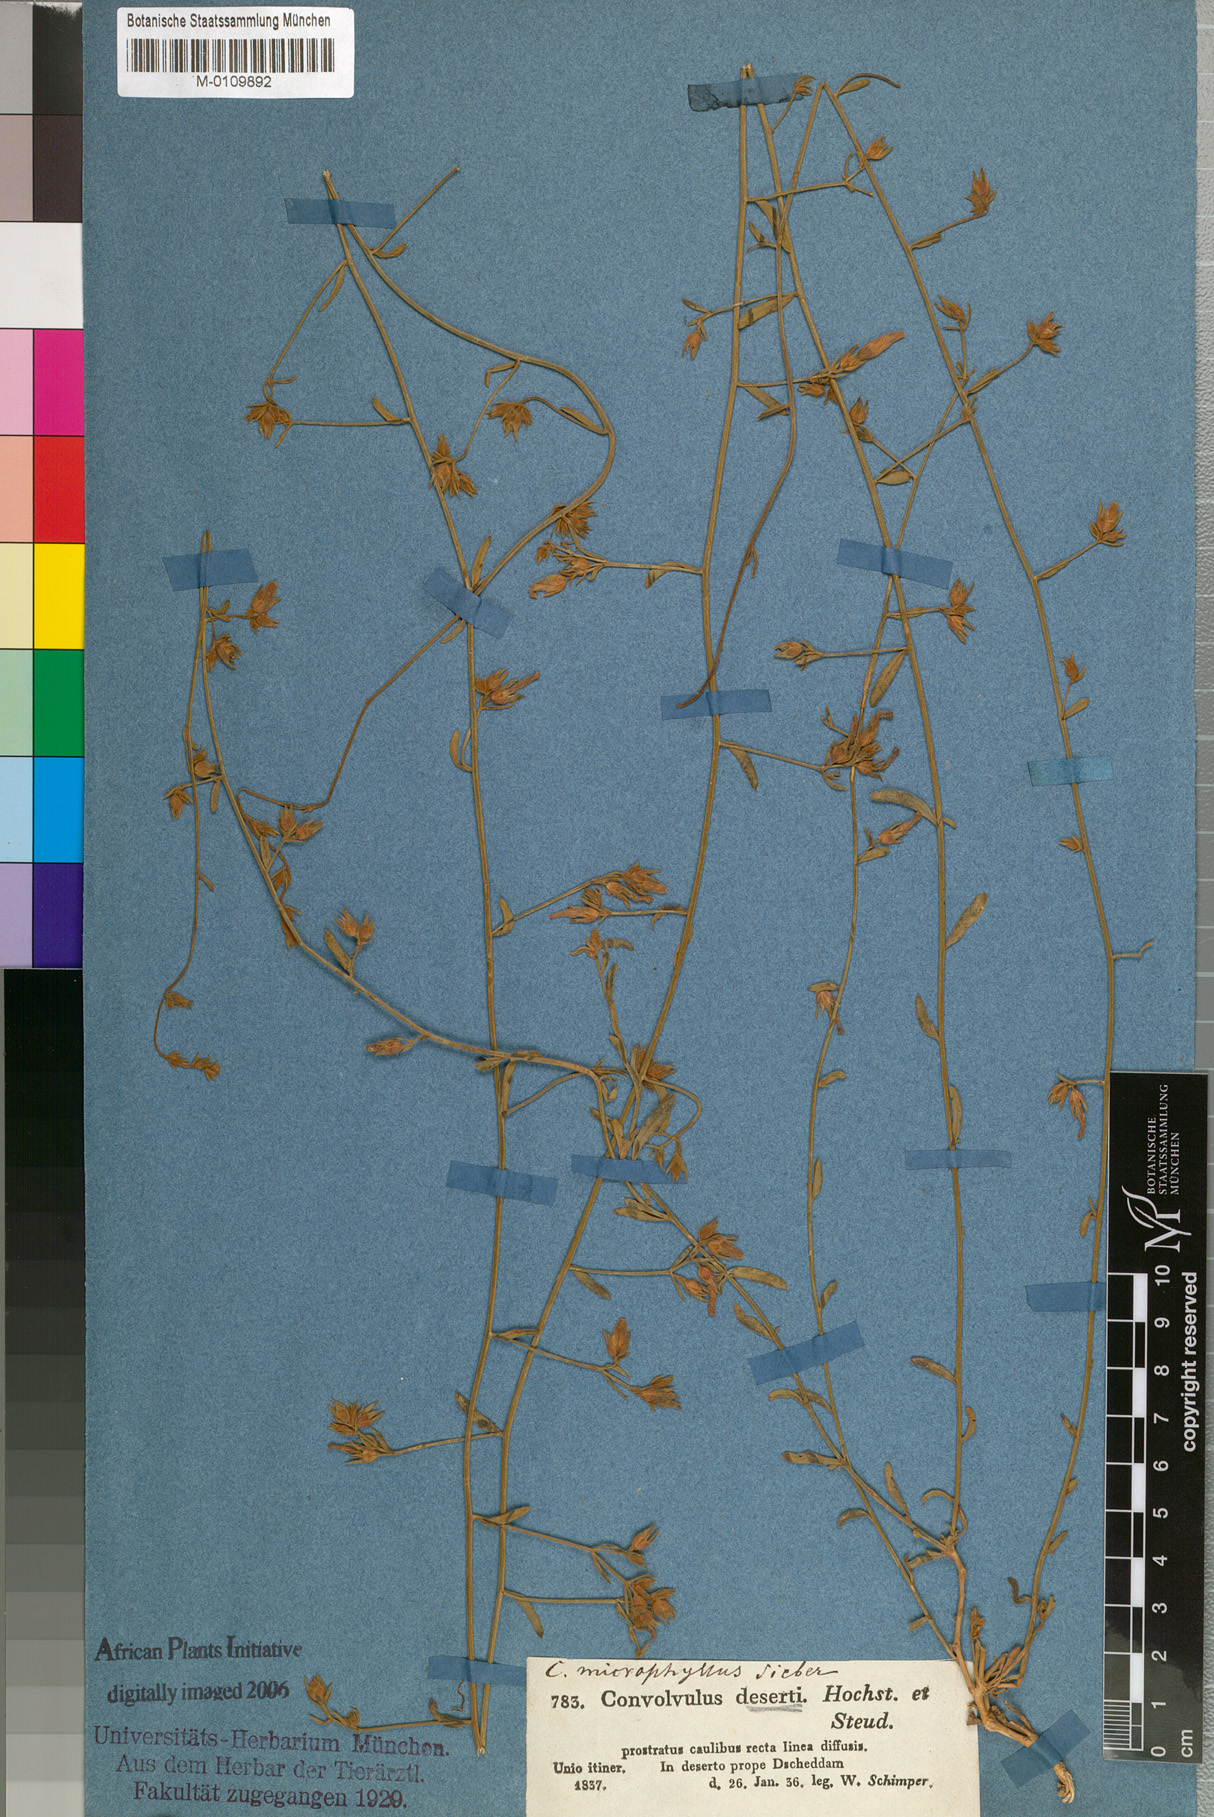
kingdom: Plantae
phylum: Tracheophyta
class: Magnoliopsida
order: Solanales
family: Convolvulaceae
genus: Convolvulus
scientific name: Convolvulus prostratus
